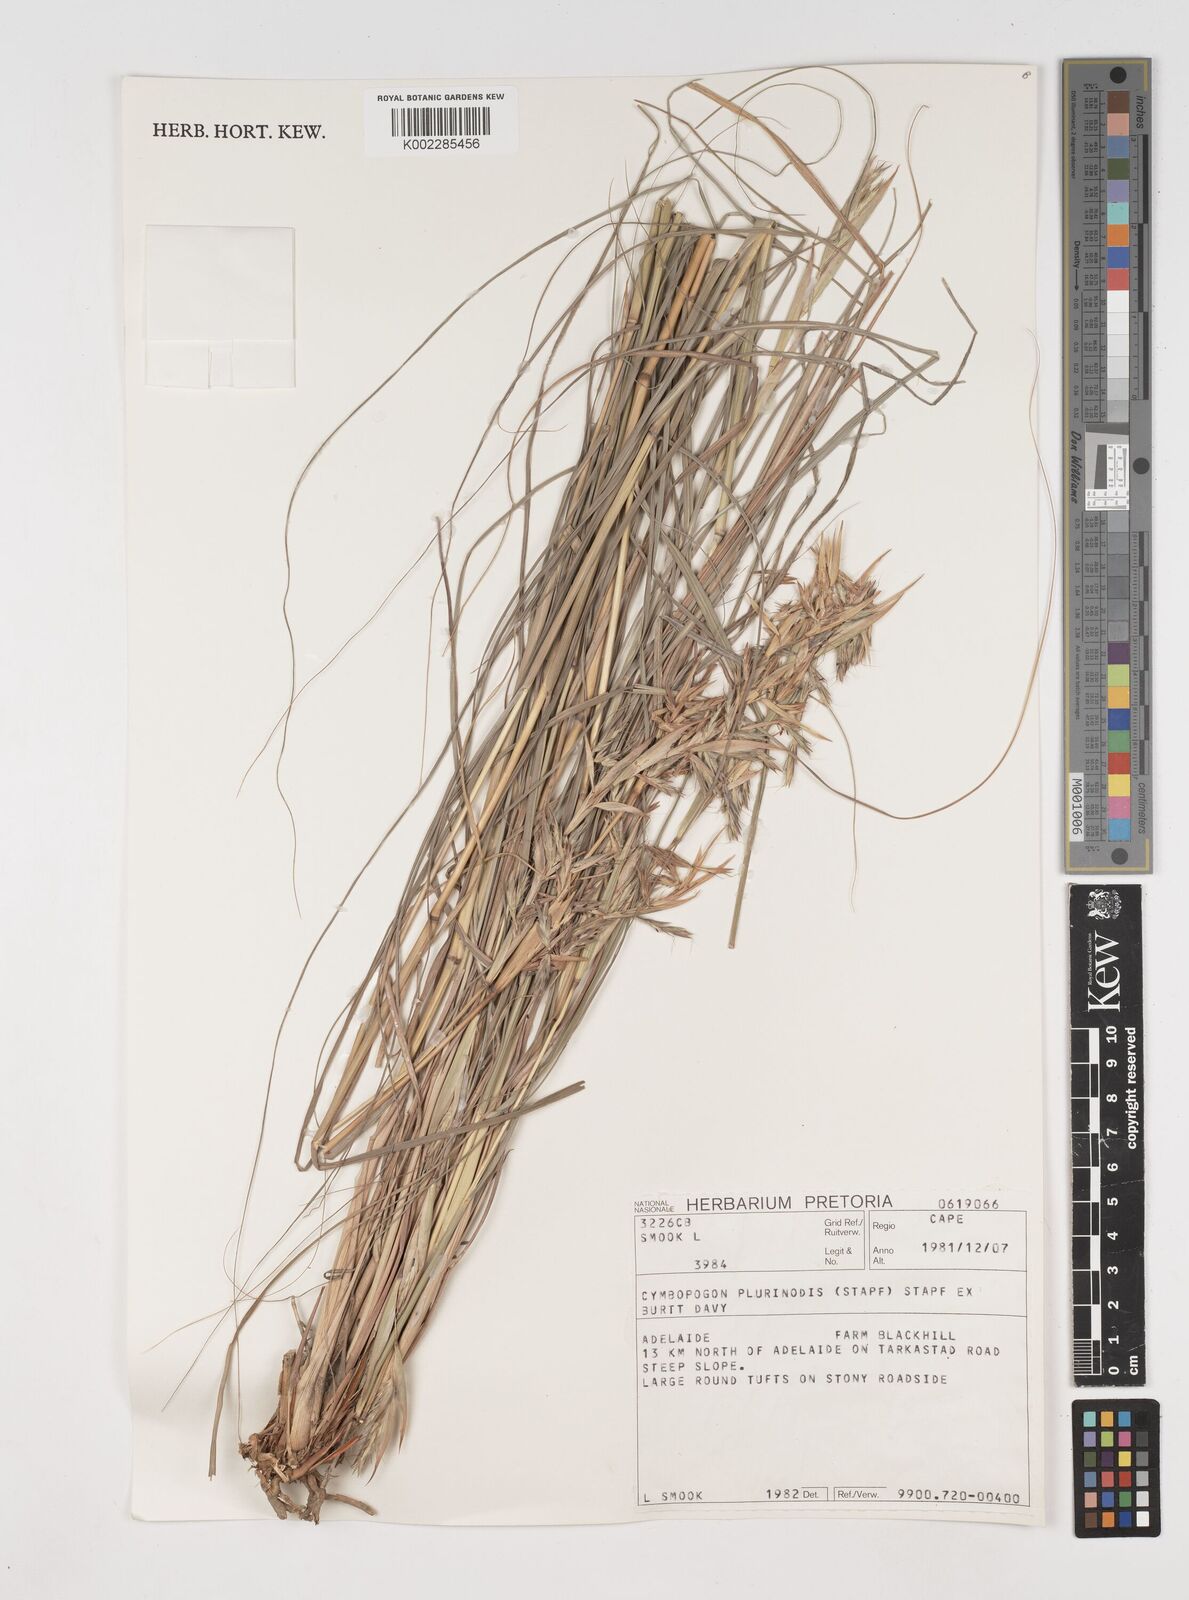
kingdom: Plantae
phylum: Tracheophyta
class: Liliopsida
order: Poales
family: Poaceae
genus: Cymbopogon
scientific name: Cymbopogon pospischilii
